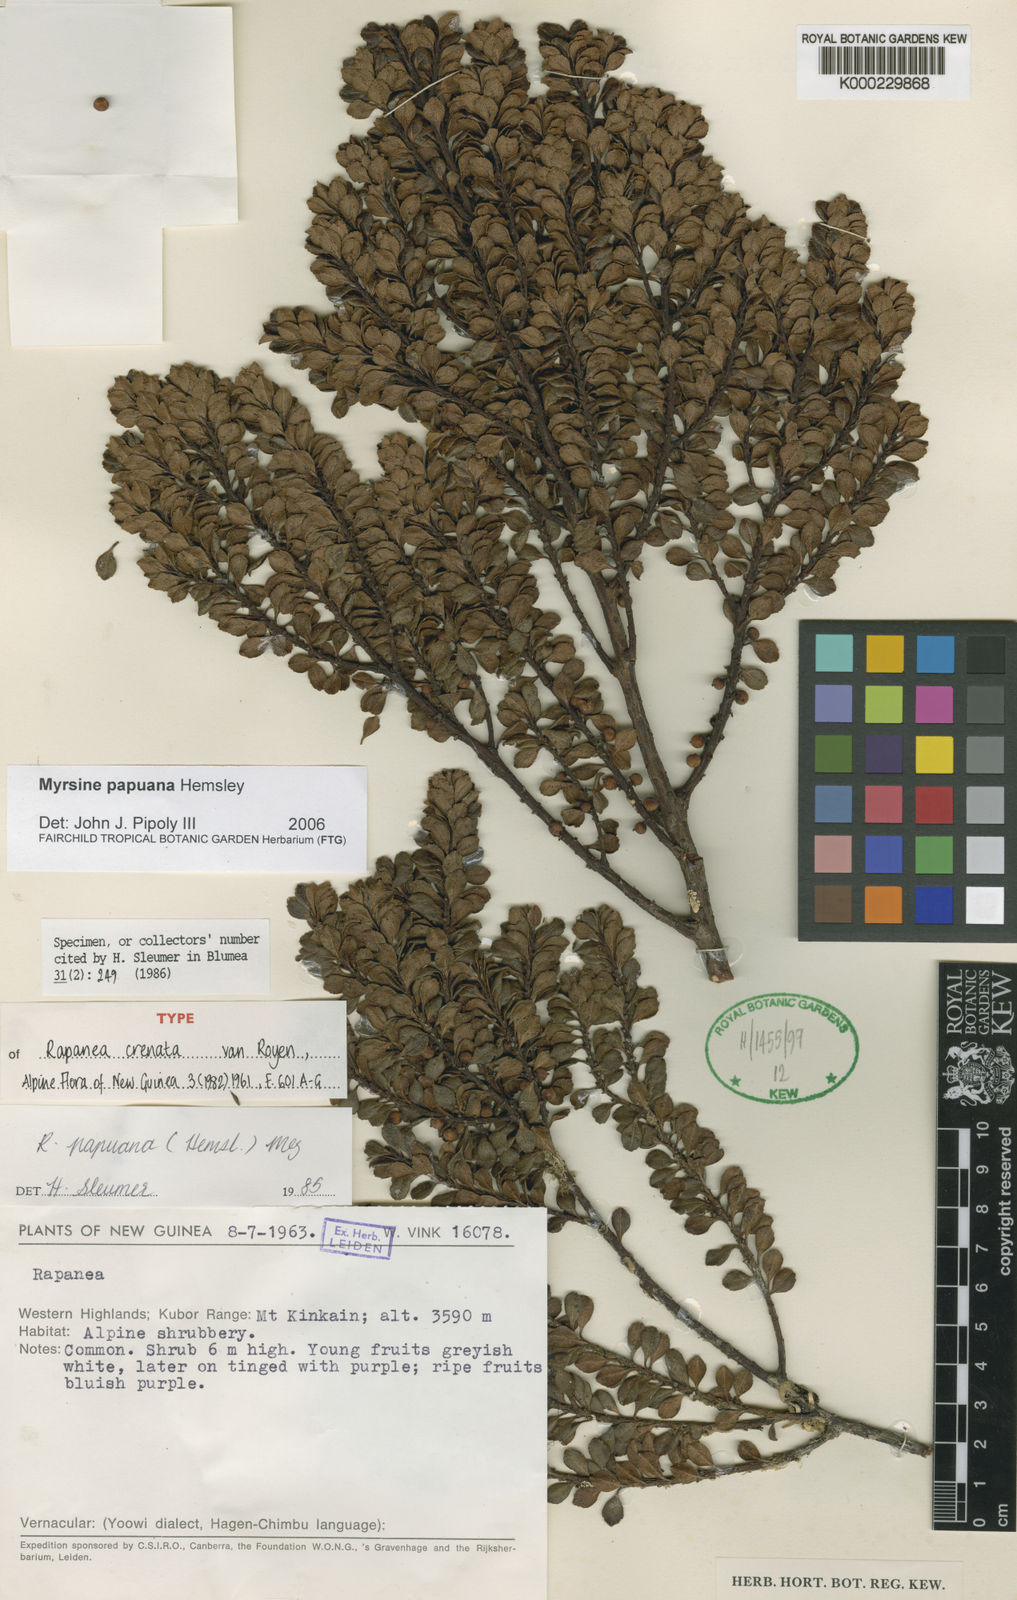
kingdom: Plantae
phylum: Tracheophyta
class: Magnoliopsida
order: Ericales
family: Primulaceae
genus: Myrsine
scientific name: Myrsine papuana
